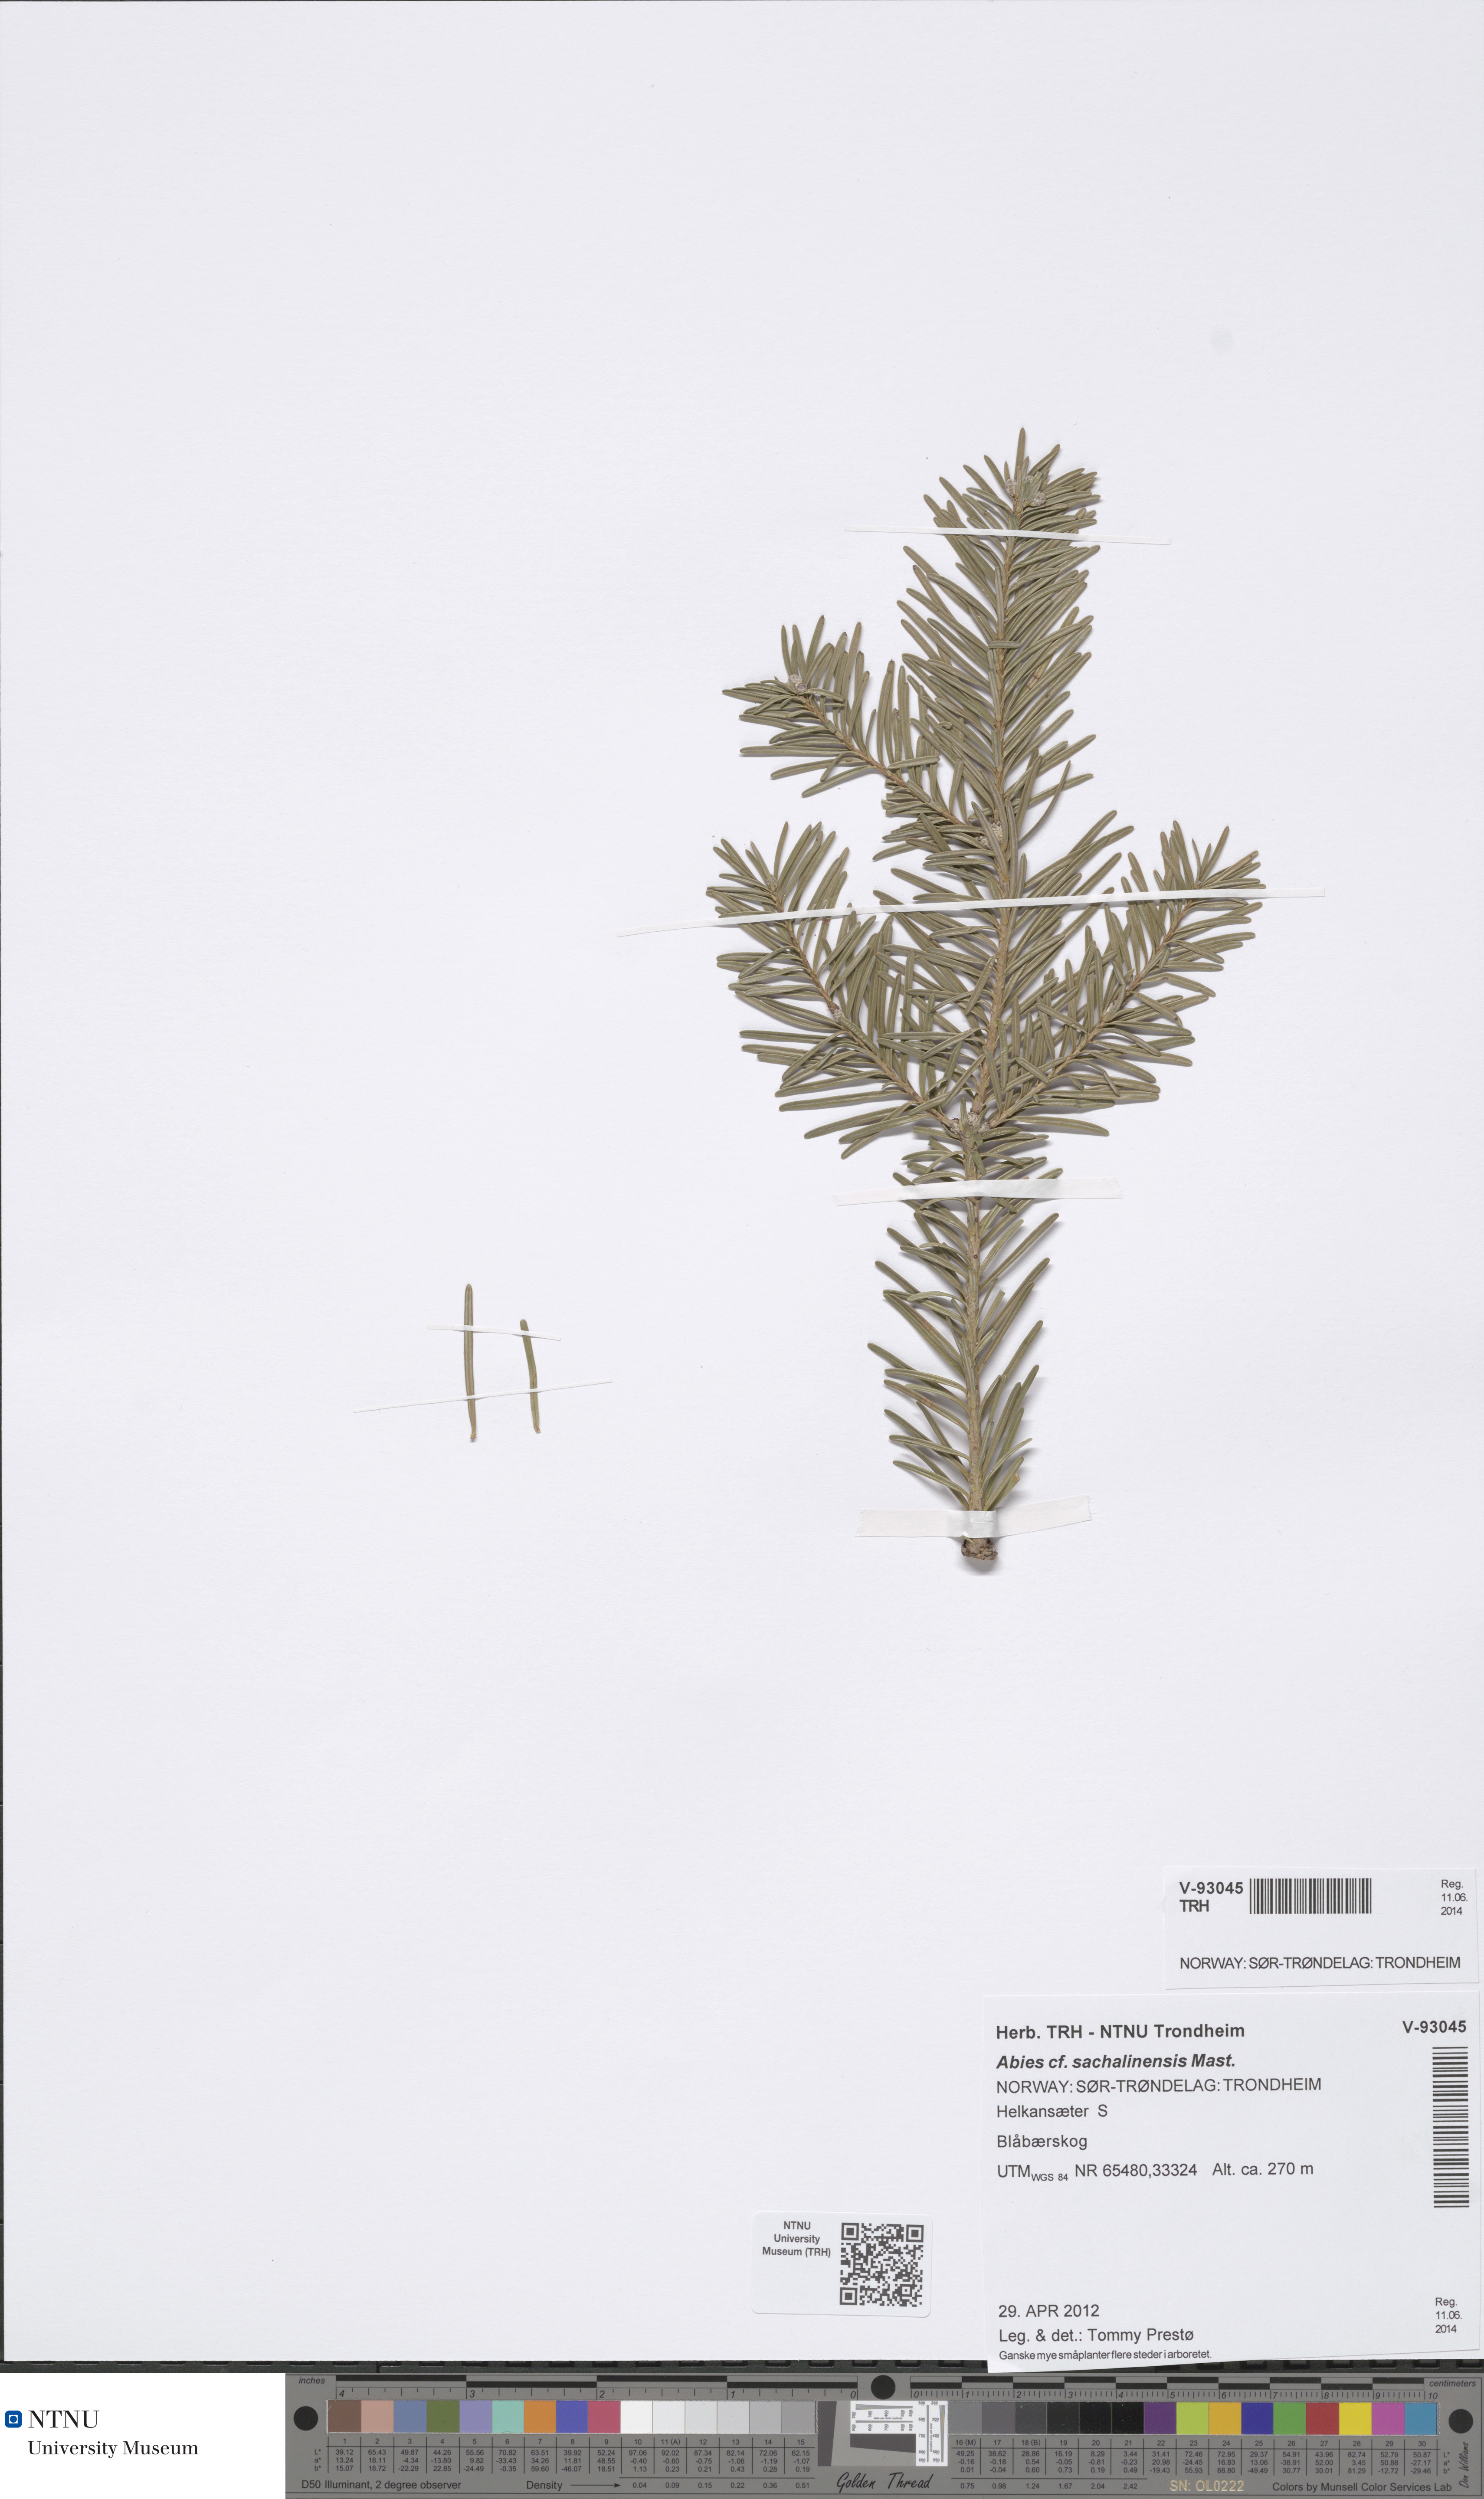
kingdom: Plantae
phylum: Tracheophyta
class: Pinopsida
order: Pinales
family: Pinaceae
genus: Abies
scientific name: Abies sachalinensis
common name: Sakhalin fir
